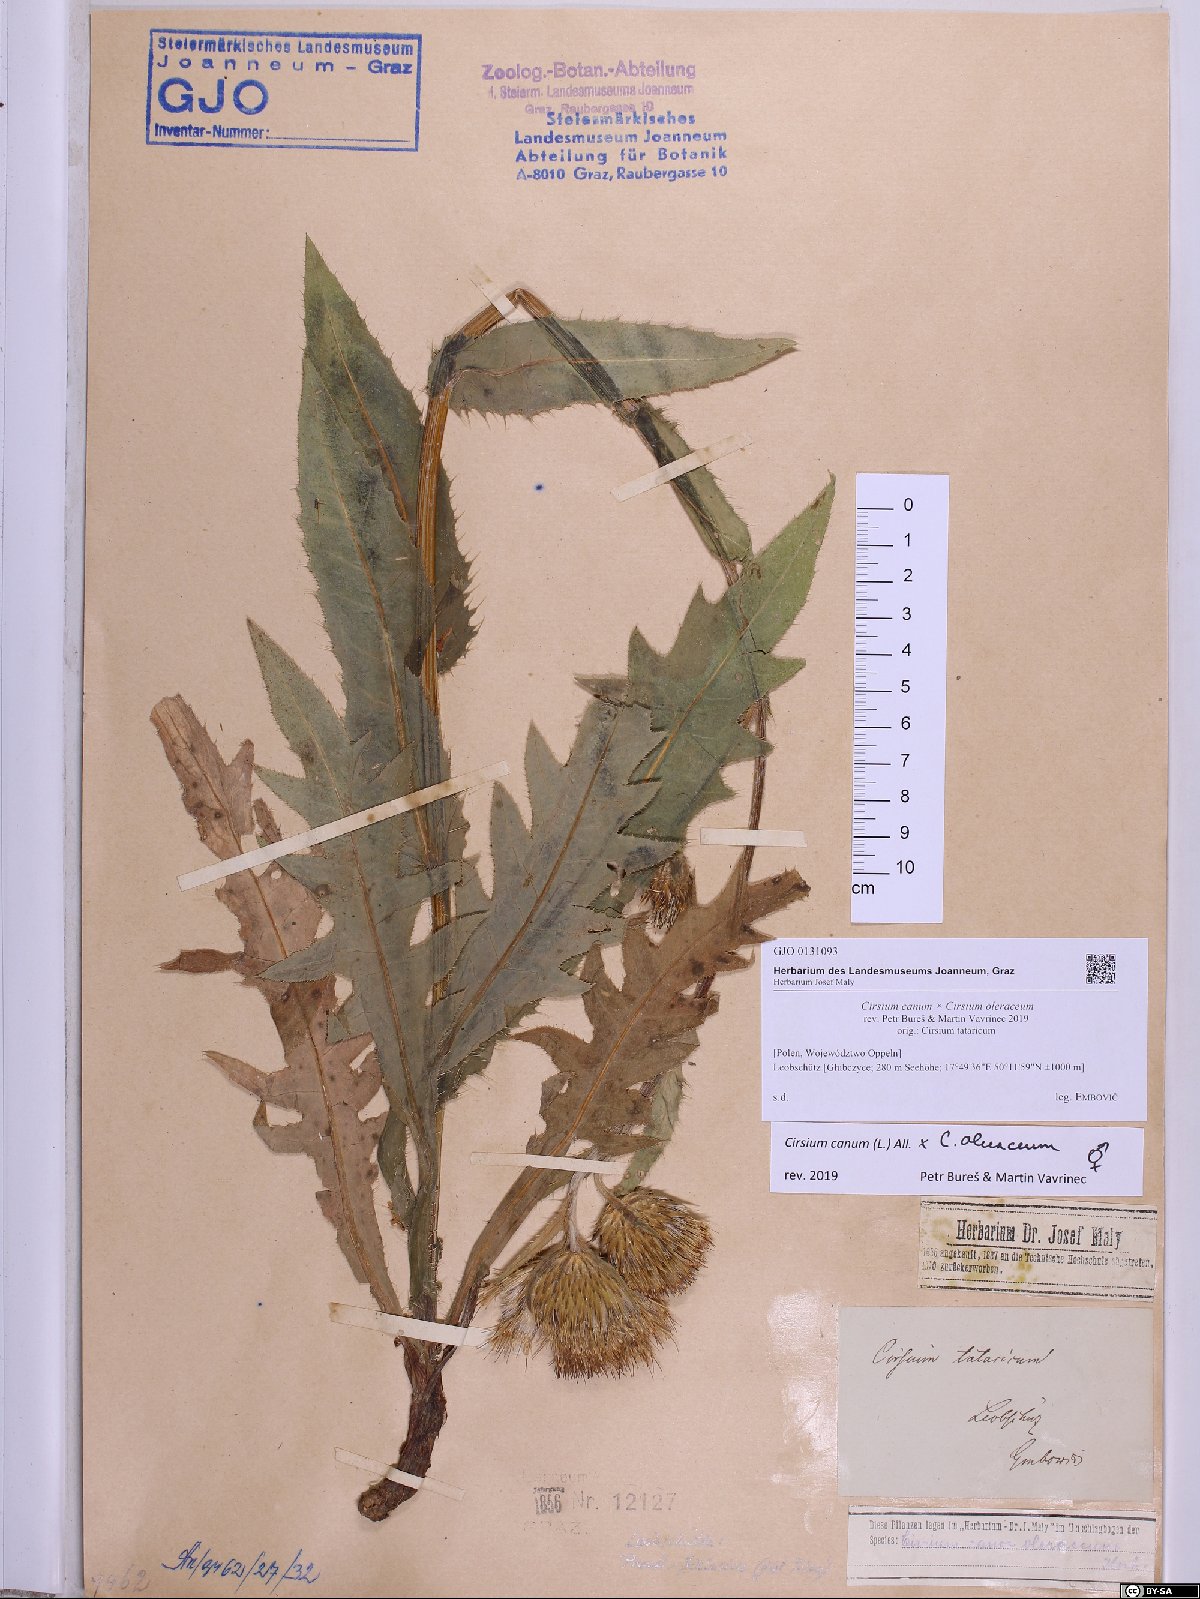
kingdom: Plantae
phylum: Tracheophyta
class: Magnoliopsida
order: Asterales
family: Asteraceae
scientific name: Asteraceae
